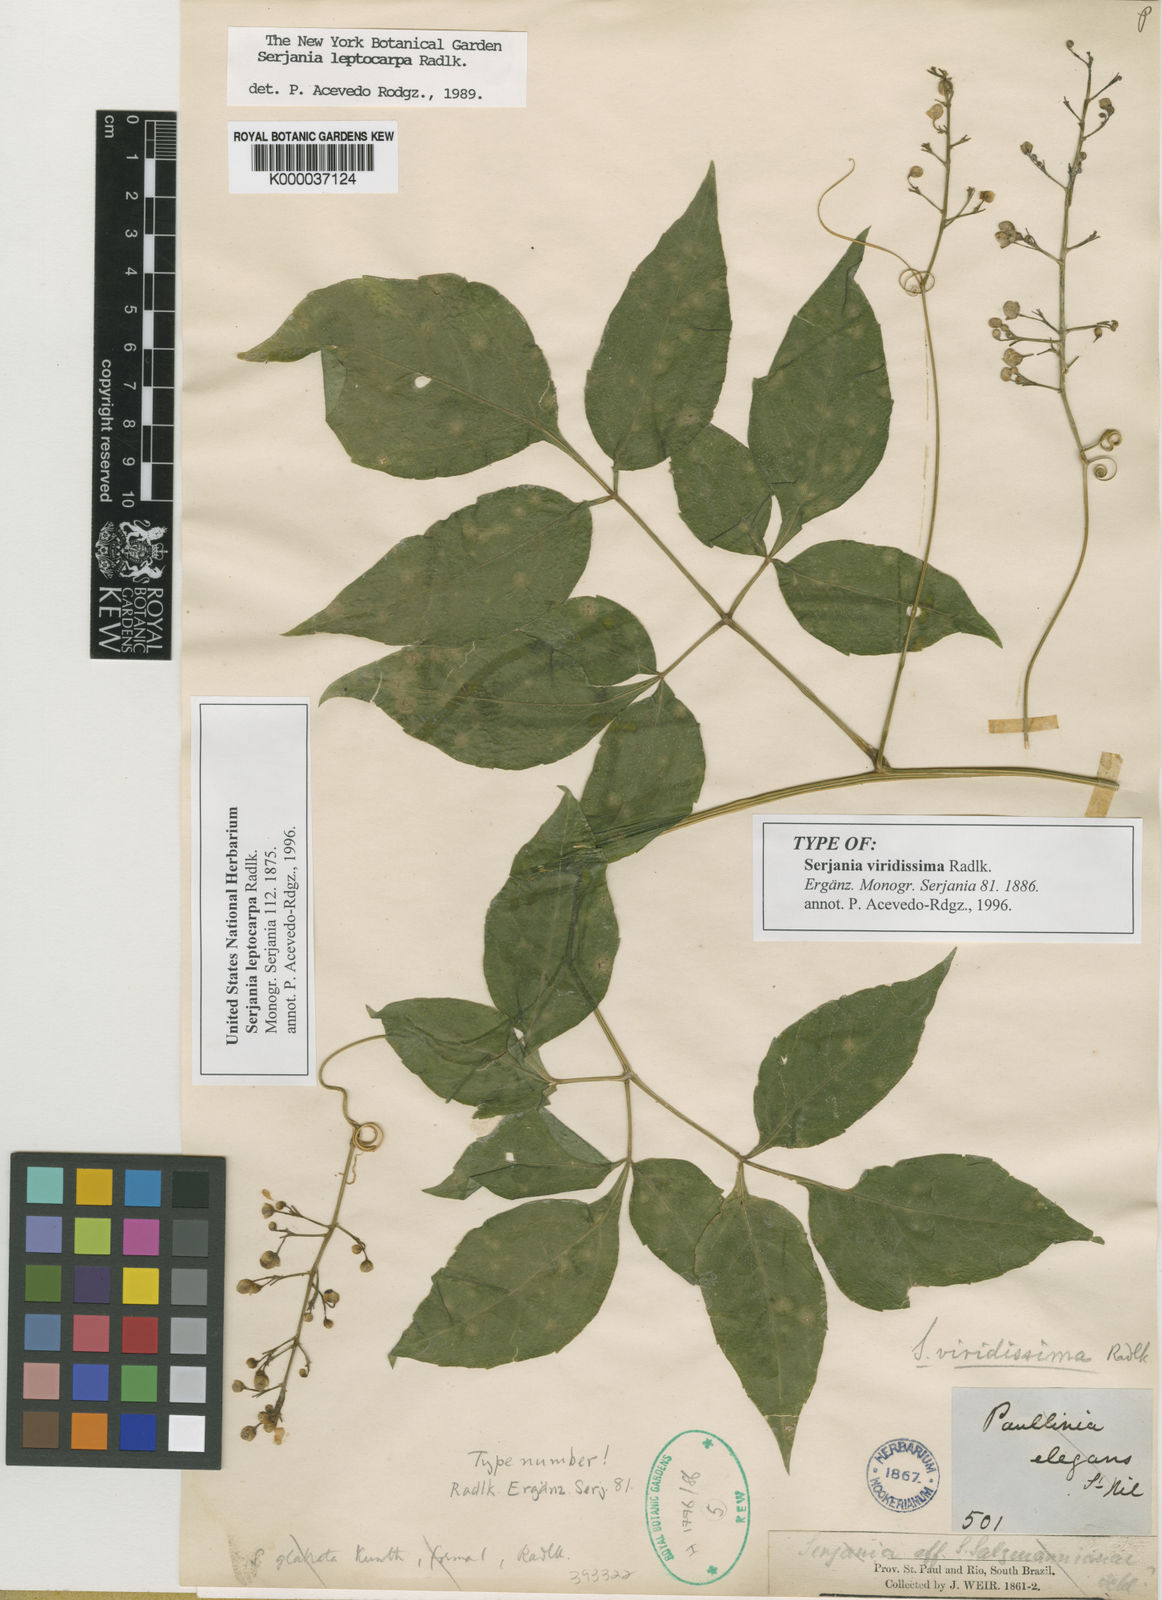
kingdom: Plantae
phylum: Tracheophyta
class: Magnoliopsida
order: Sapindales
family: Sapindaceae
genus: Serjania
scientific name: Serjania leptocarpa
